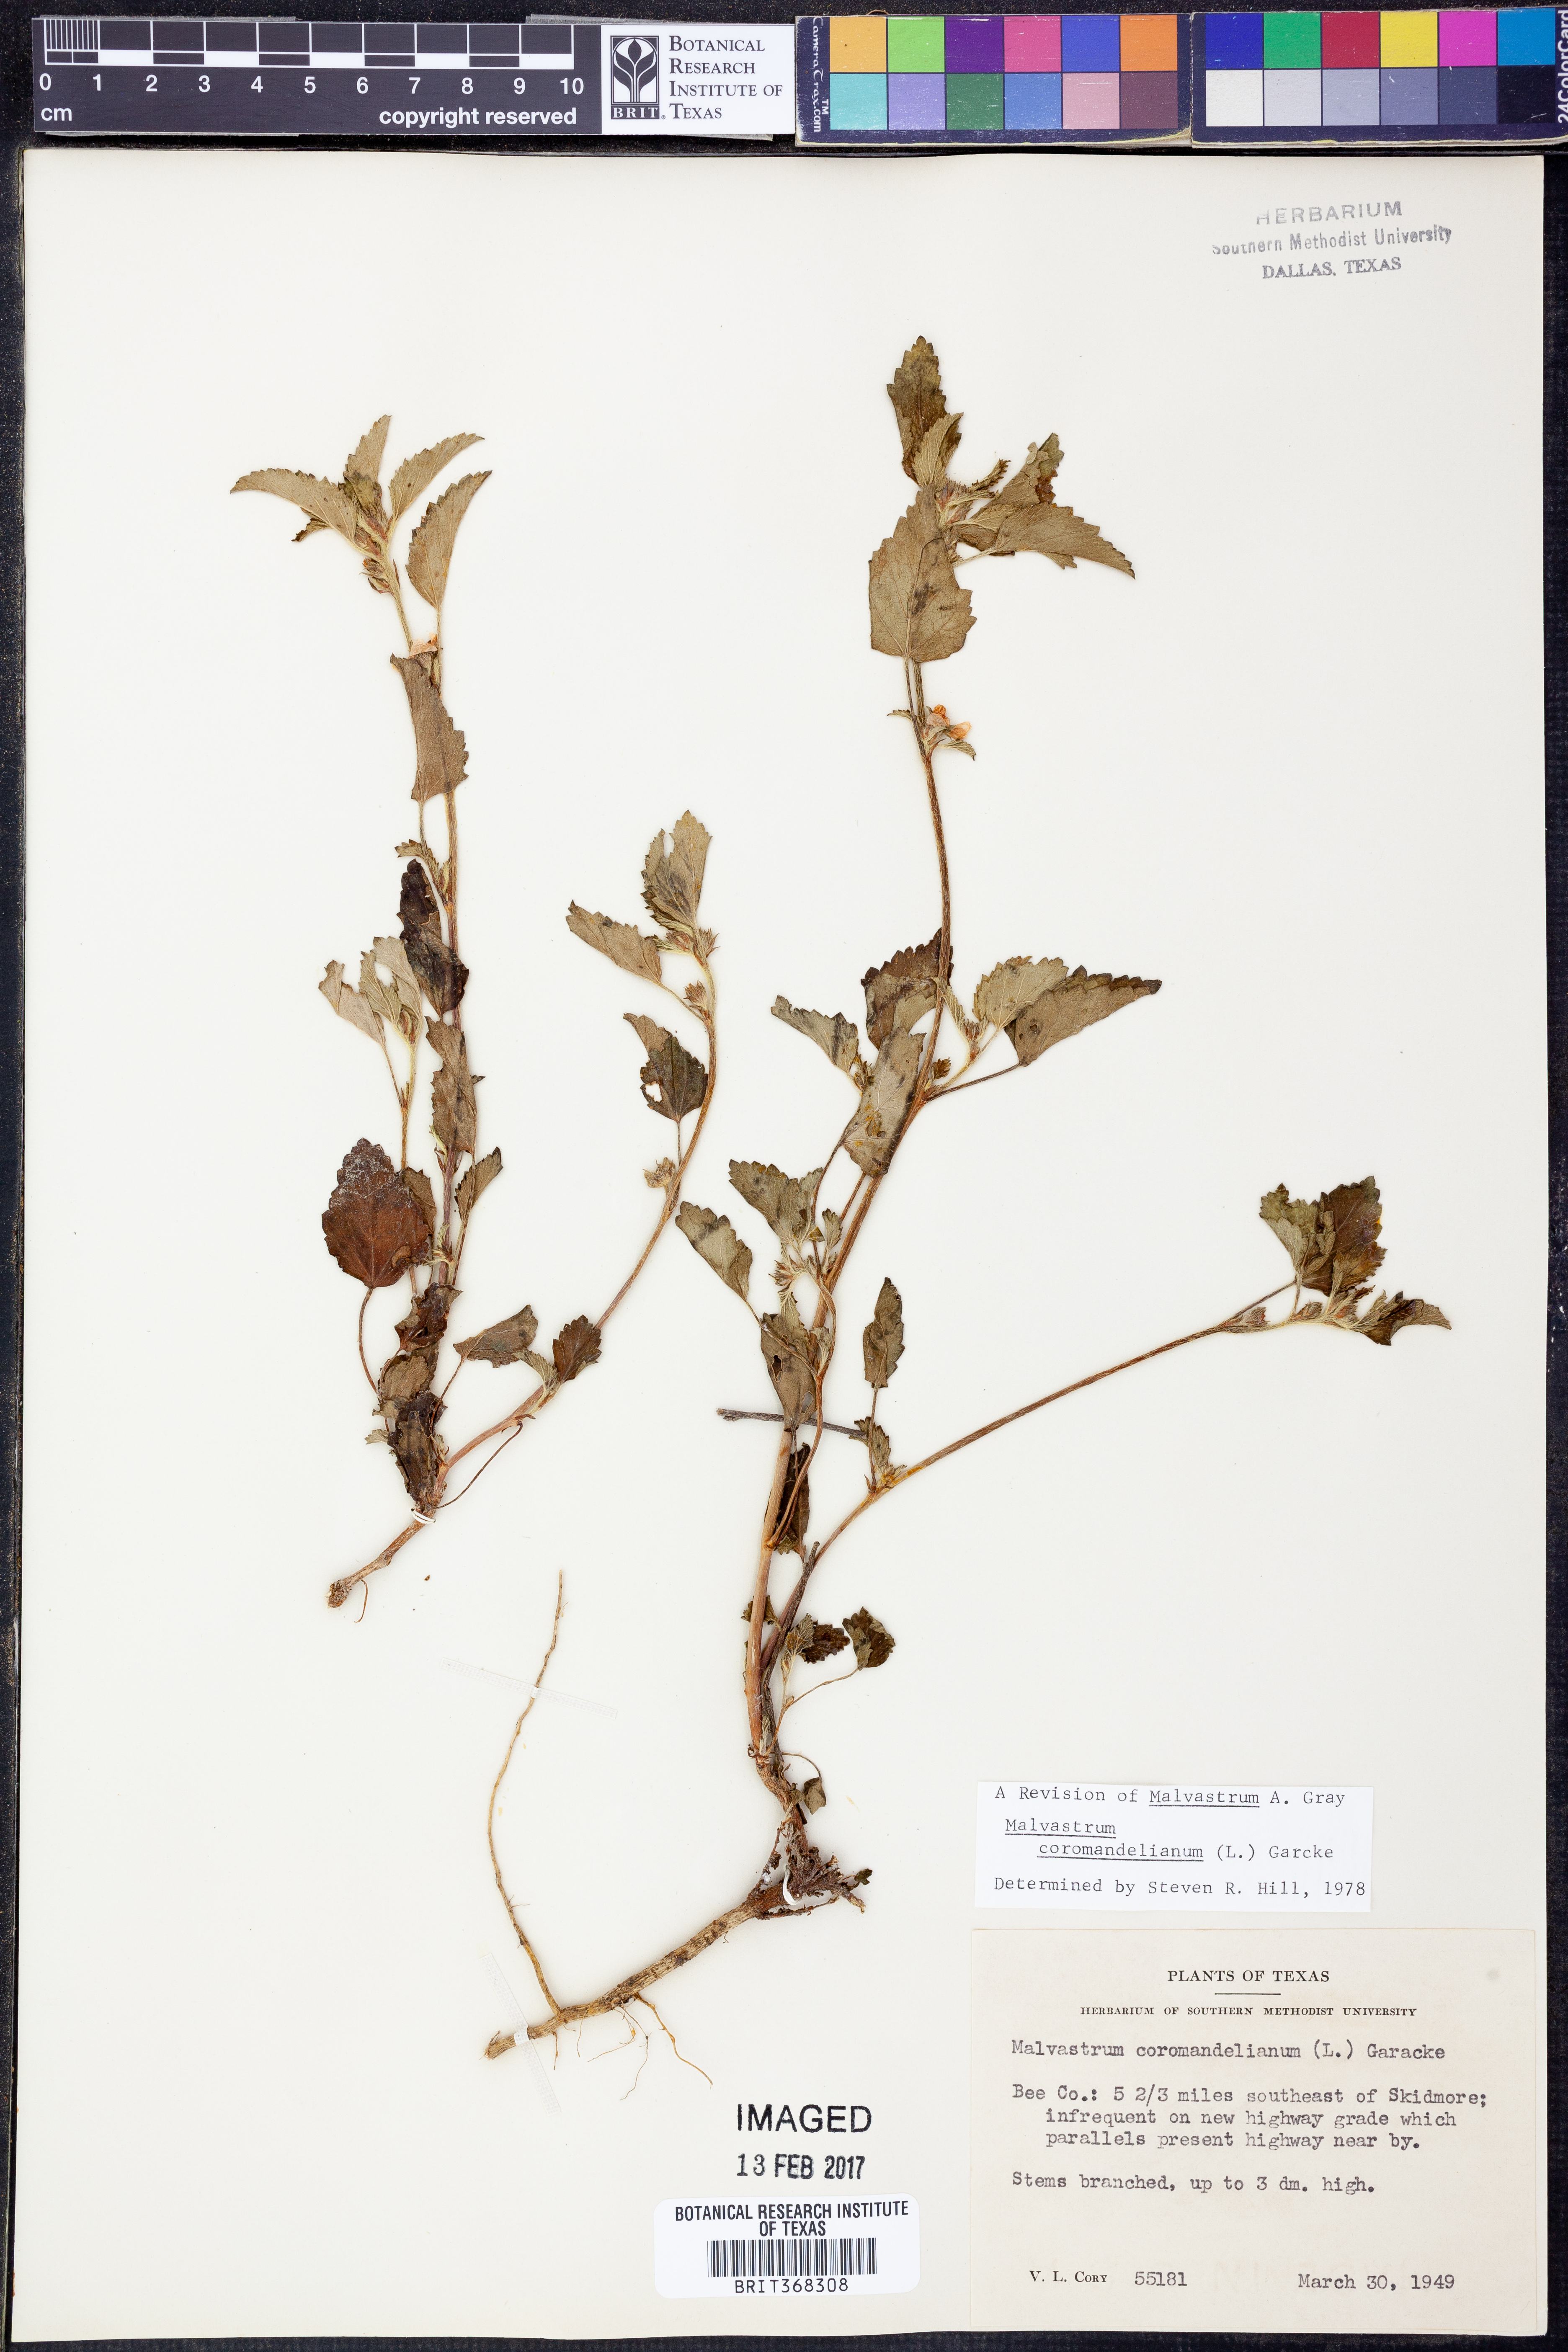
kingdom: Plantae
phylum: Tracheophyta
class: Magnoliopsida
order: Malvales
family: Malvaceae
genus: Malvastrum
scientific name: Malvastrum coromandelianum
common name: Threelobe false mallow
